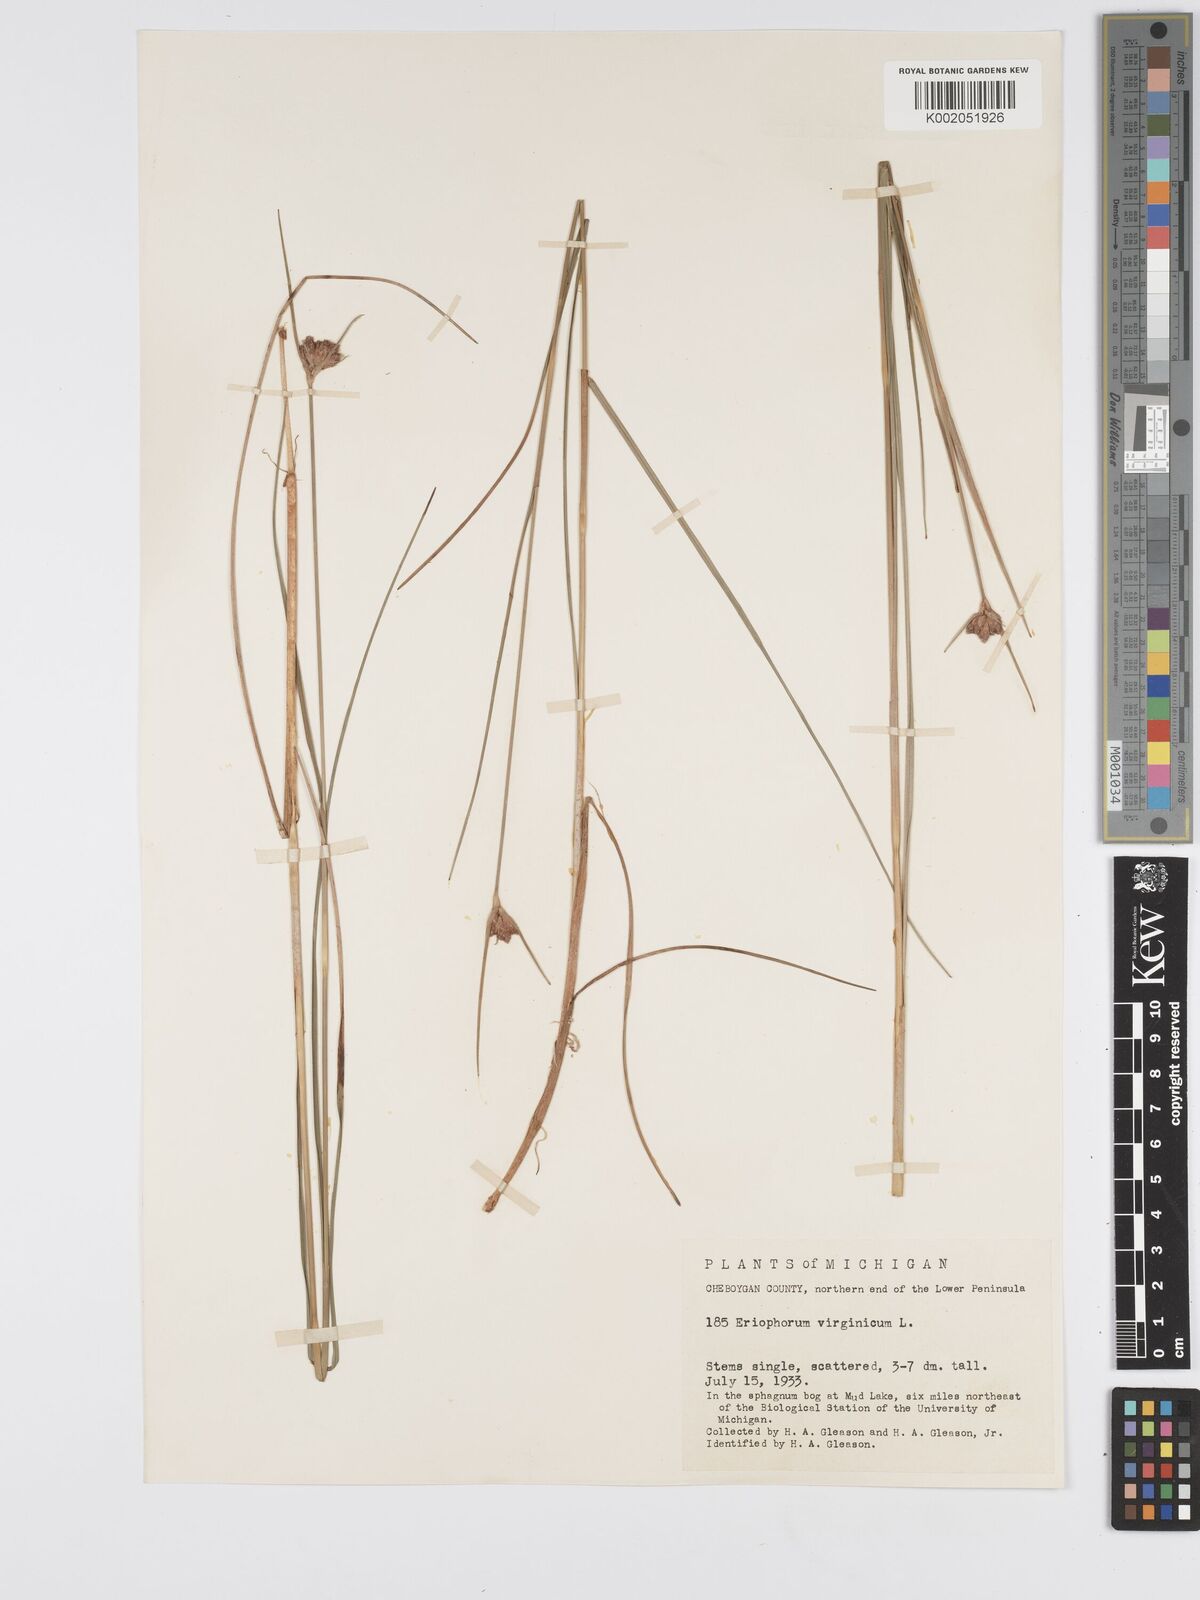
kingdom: Plantae
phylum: Tracheophyta
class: Liliopsida
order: Poales
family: Cyperaceae
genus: Eriophorum
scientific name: Eriophorum virginicum
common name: Tawny cottongrass
